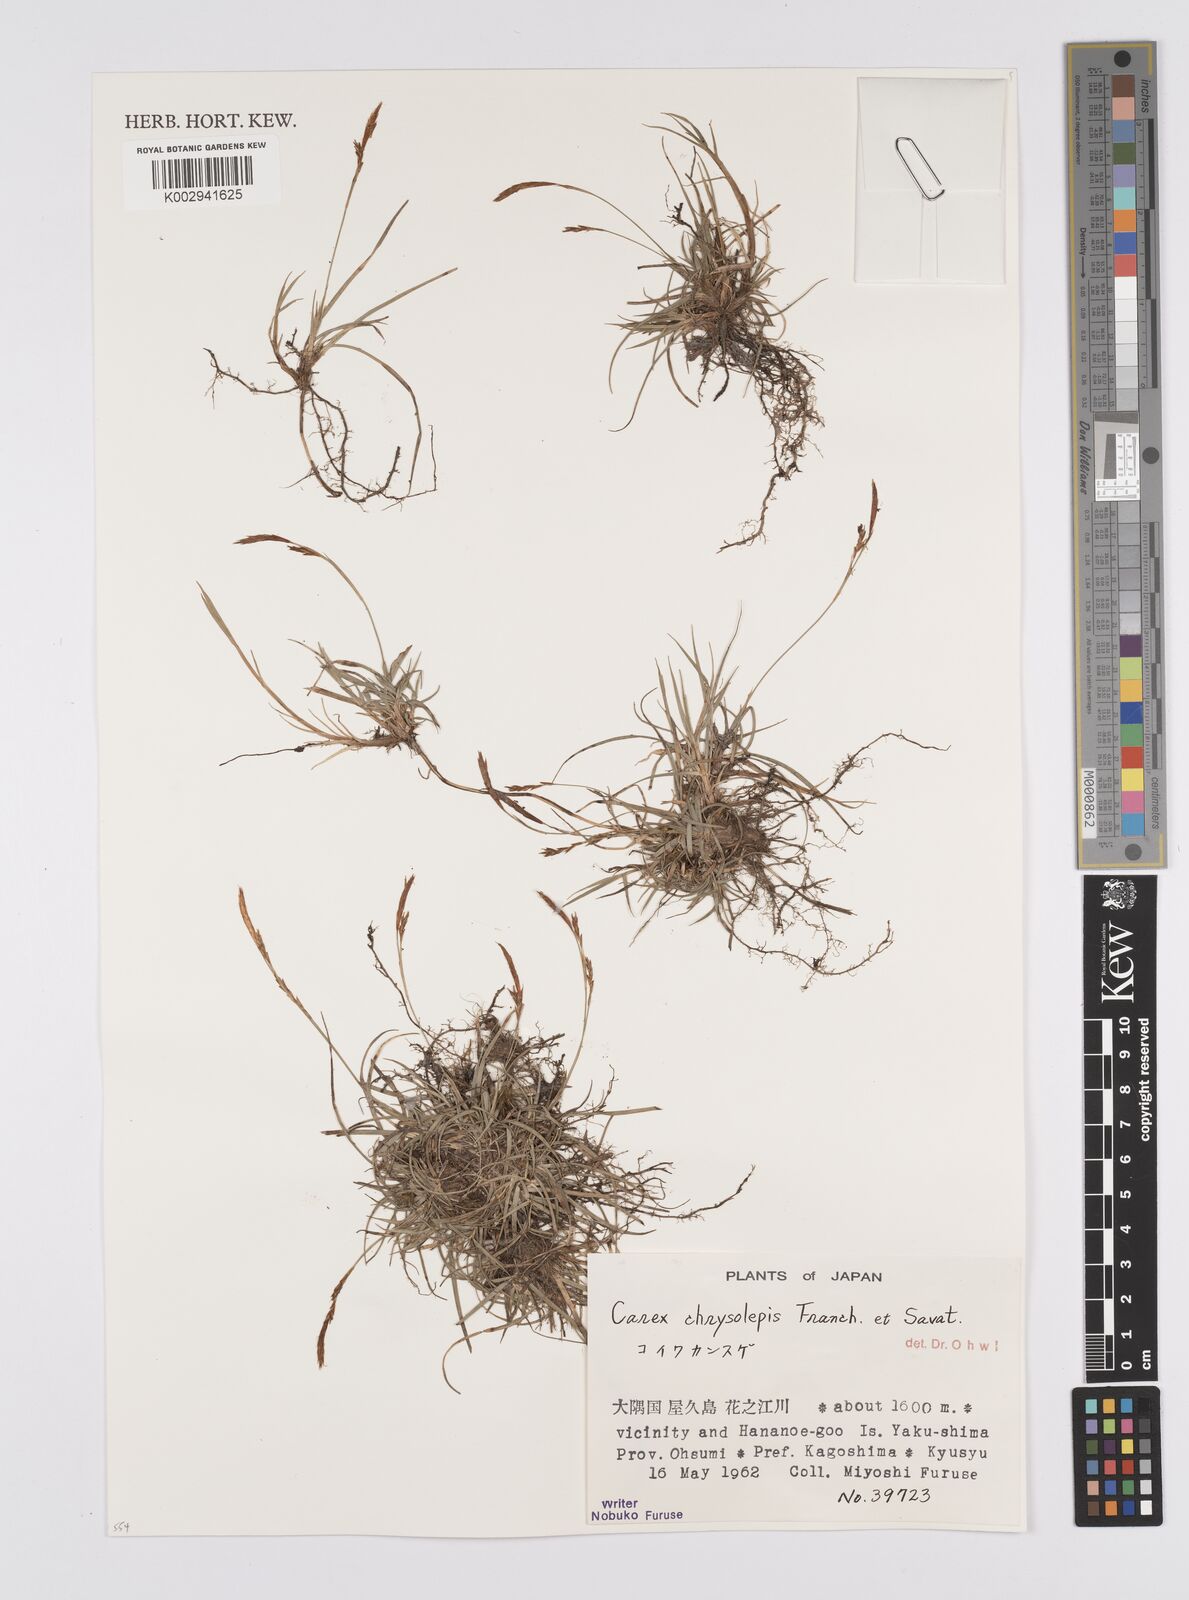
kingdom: Plantae
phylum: Tracheophyta
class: Liliopsida
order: Poales
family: Cyperaceae
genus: Carex
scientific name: Carex chrysolepis
